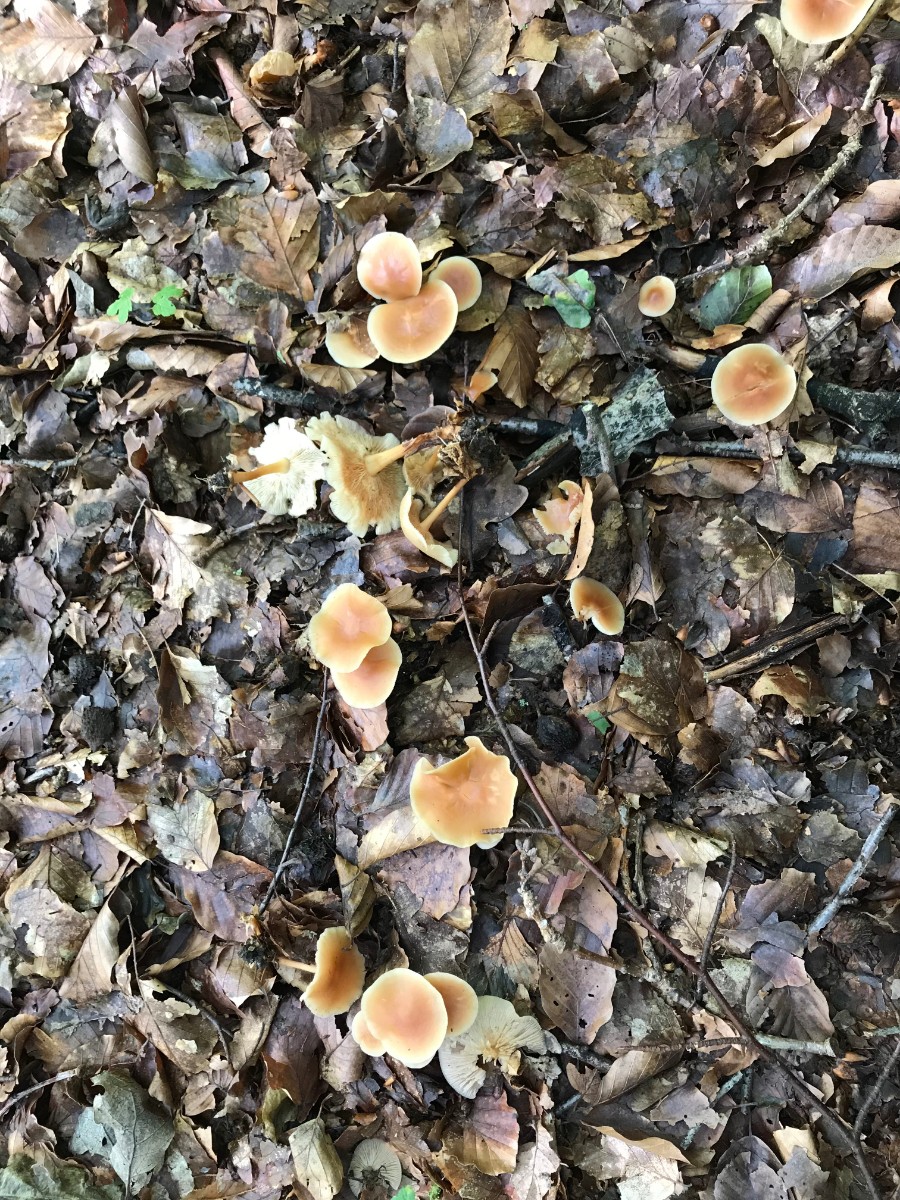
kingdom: Fungi
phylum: Basidiomycota
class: Agaricomycetes
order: Agaricales
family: Omphalotaceae
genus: Gymnopus
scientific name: Gymnopus dryophilus
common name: løv-fladhat
